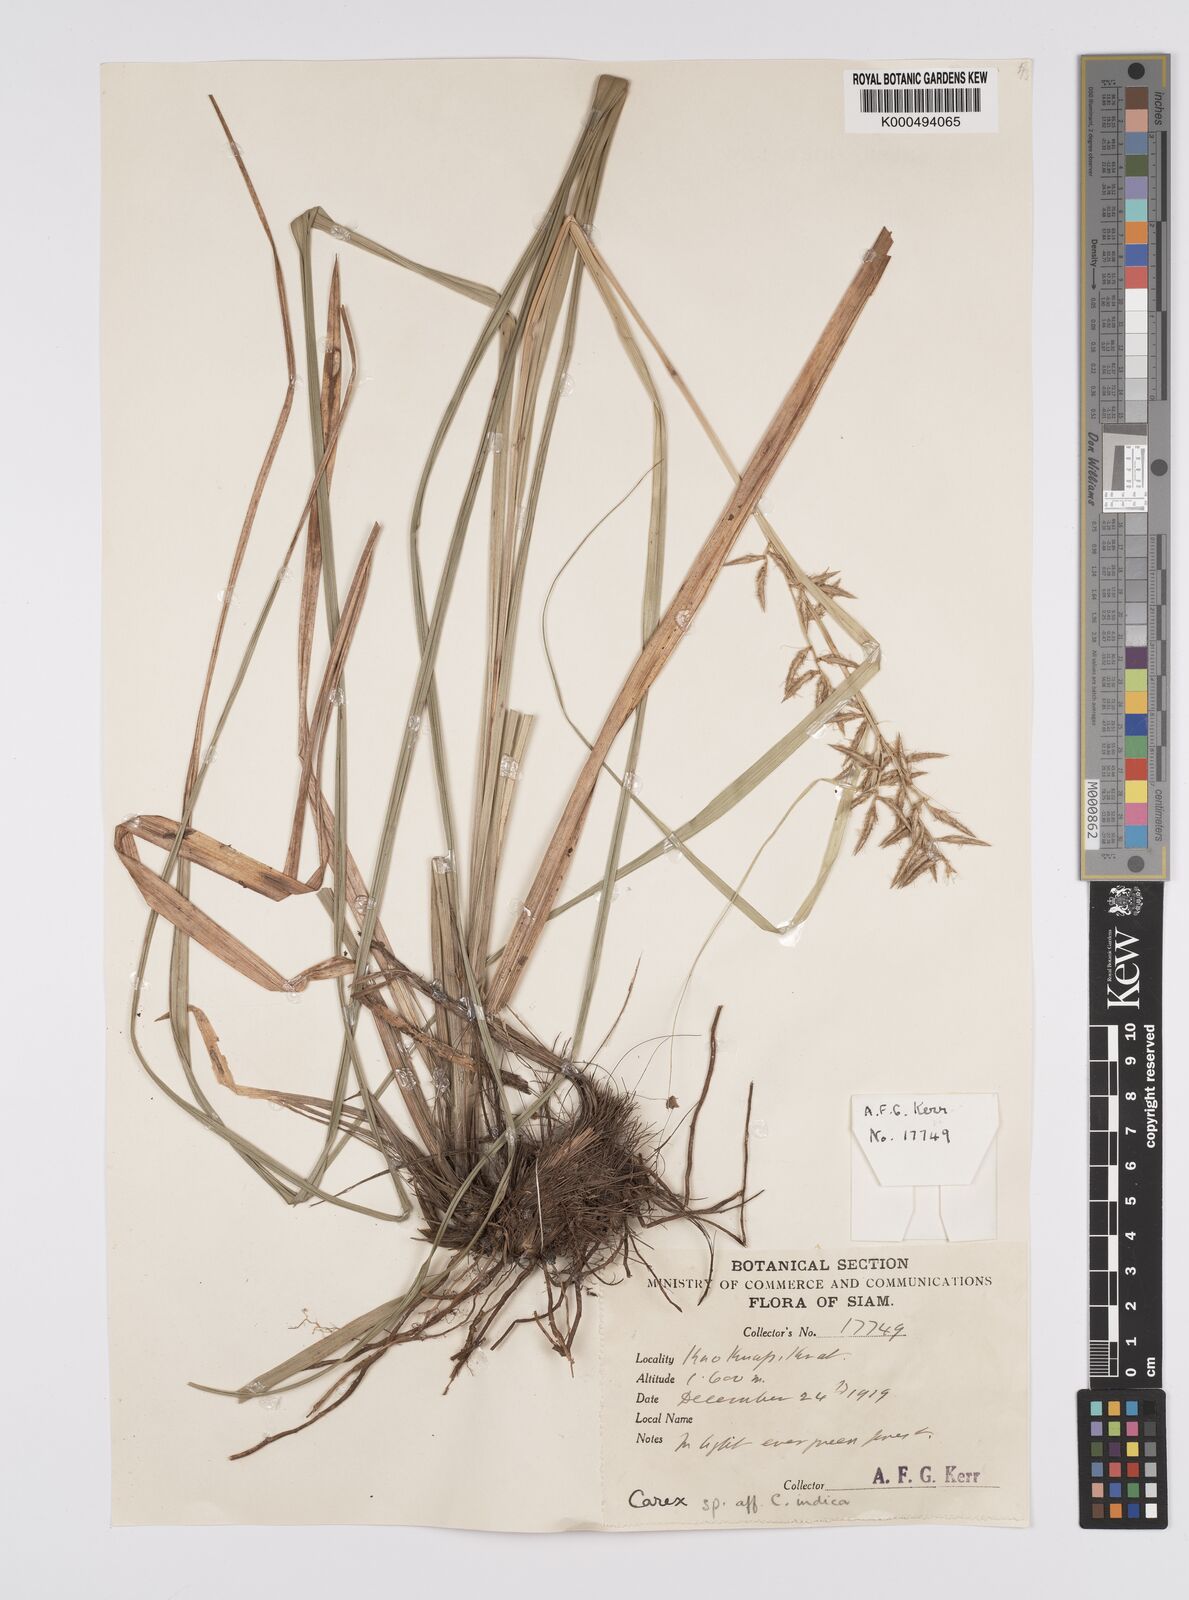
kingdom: Plantae
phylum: Tracheophyta
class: Liliopsida
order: Poales
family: Cyperaceae
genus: Carex
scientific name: Carex indica
